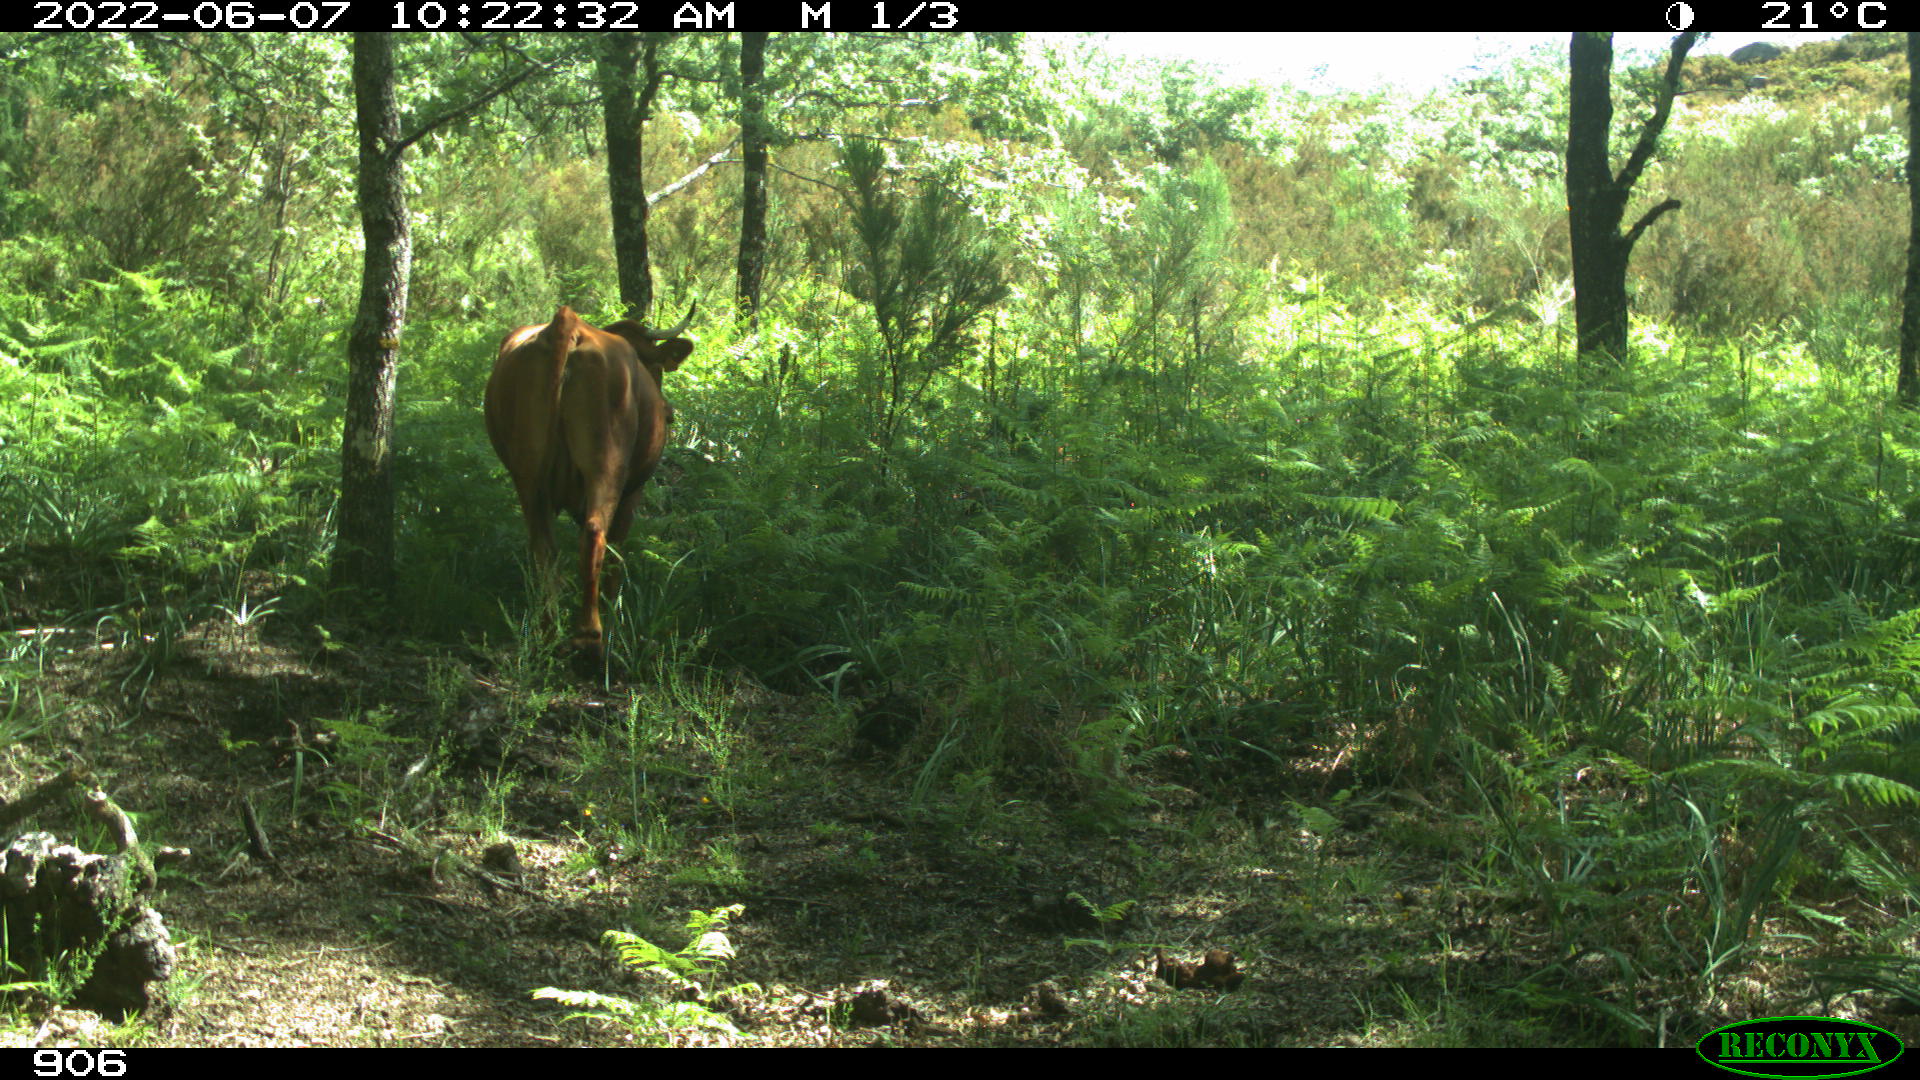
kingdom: Animalia
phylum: Chordata
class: Mammalia
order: Artiodactyla
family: Bovidae
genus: Bos
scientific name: Bos taurus
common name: Domesticated cattle
